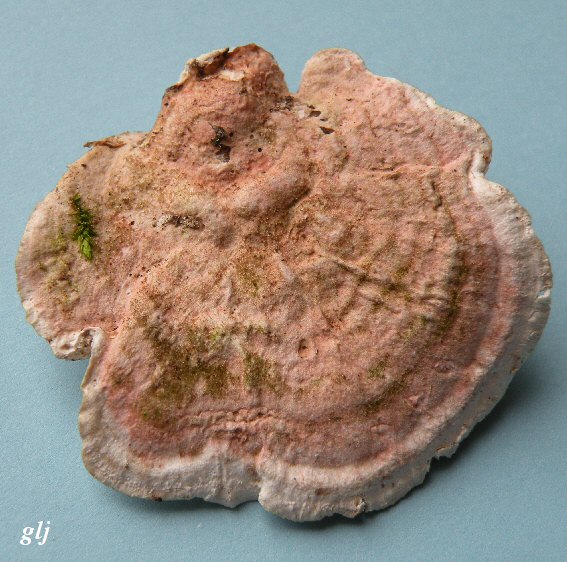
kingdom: Fungi
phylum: Basidiomycota
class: Agaricomycetes
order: Polyporales
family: Polyporaceae
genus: Lenzites
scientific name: Lenzites betulinus
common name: birke-læderporesvamp
